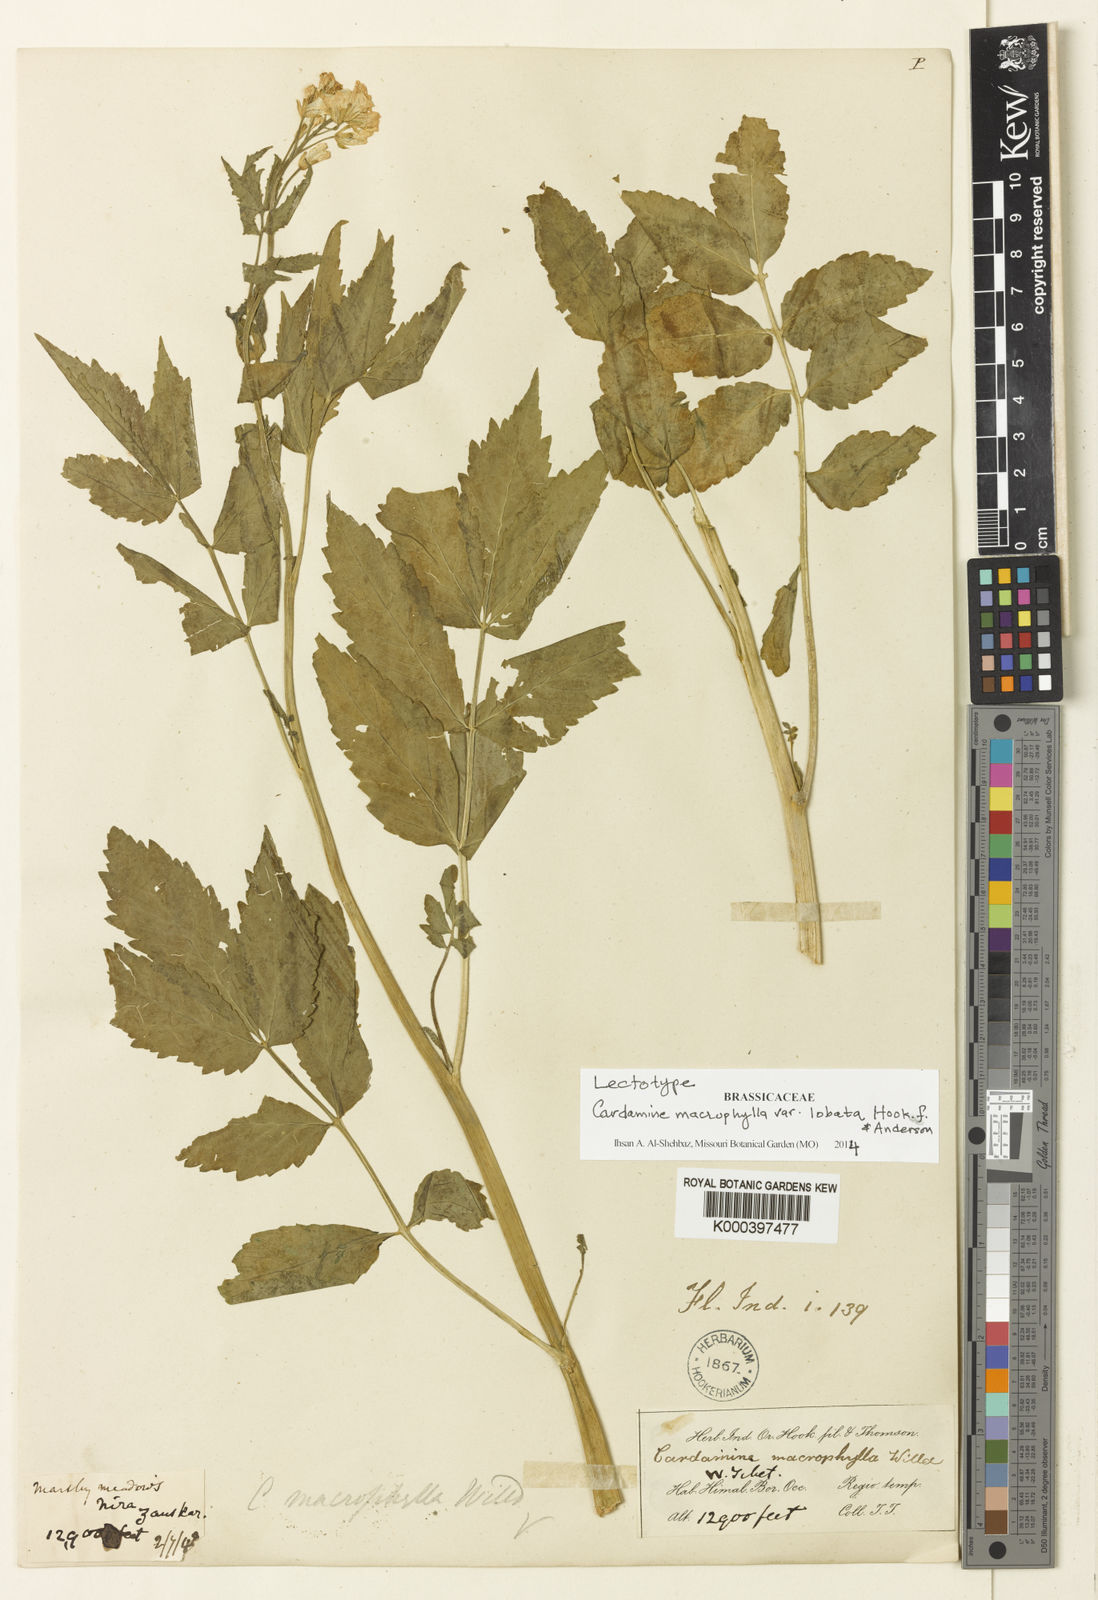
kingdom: Plantae
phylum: Tracheophyta
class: Magnoliopsida
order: Brassicales
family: Brassicaceae
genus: Cardamine
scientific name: Cardamine
